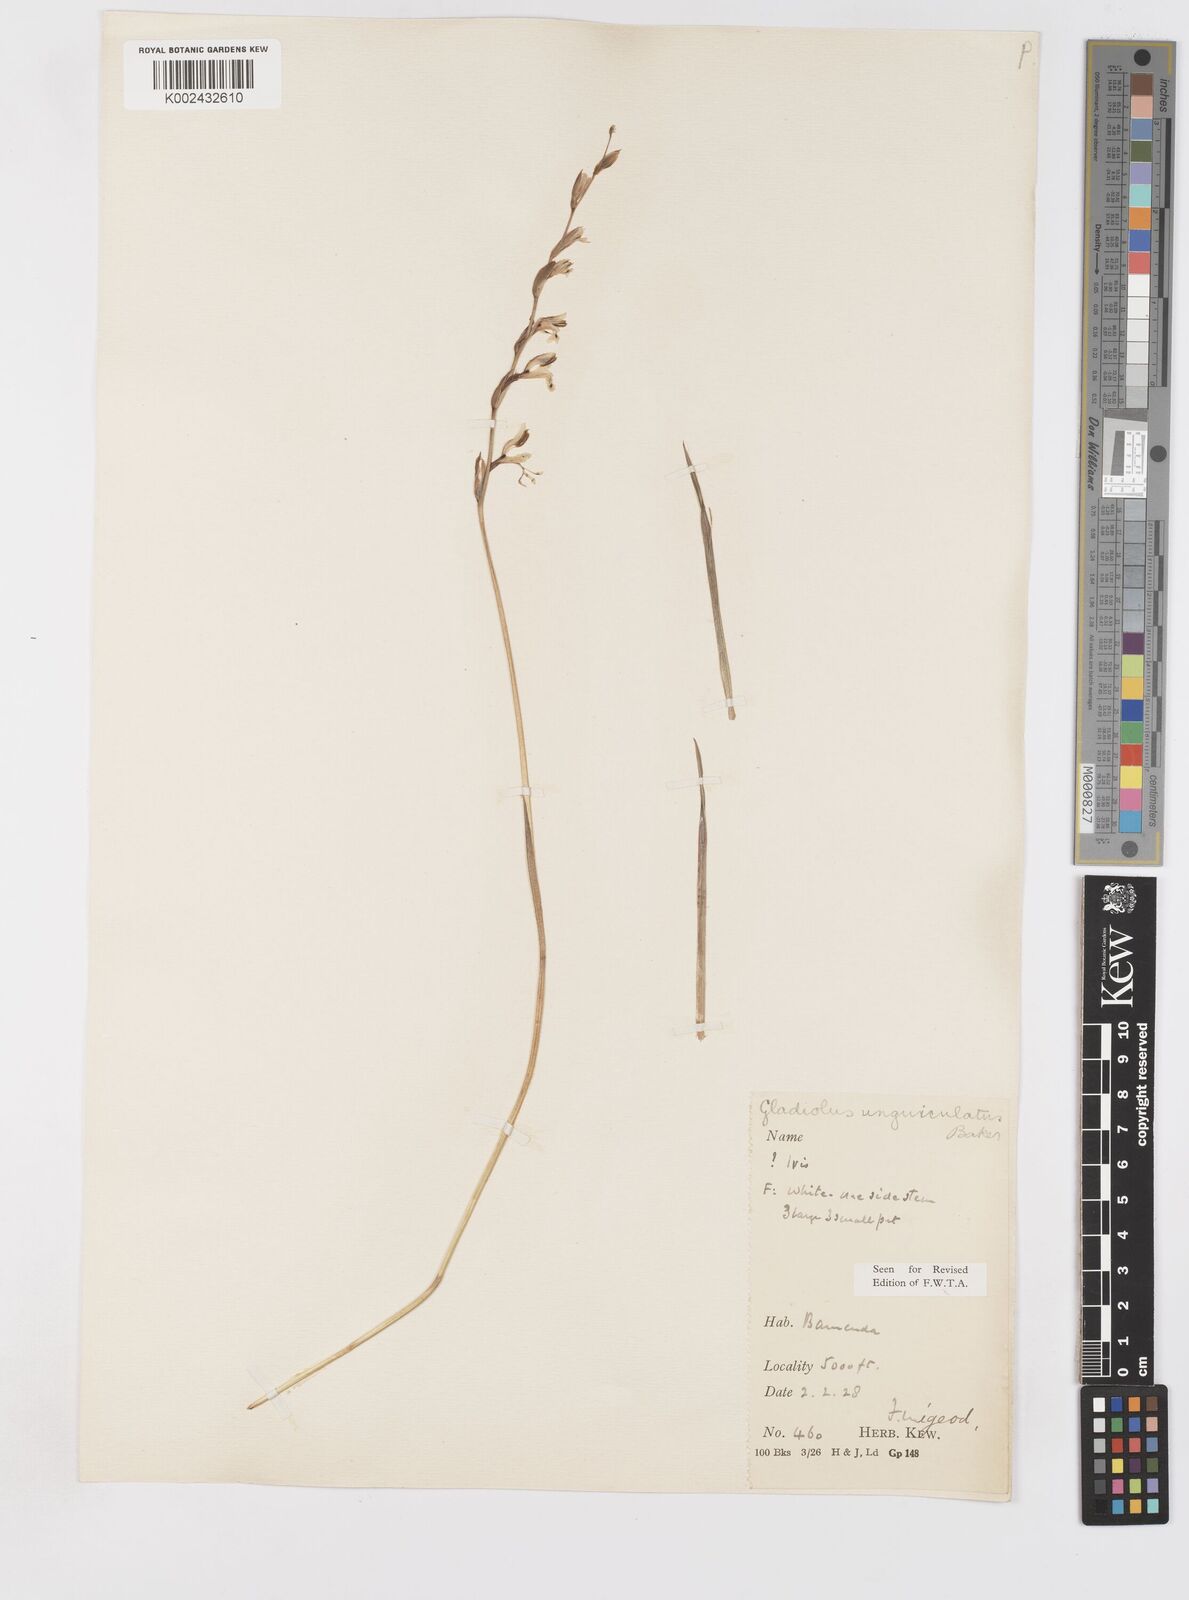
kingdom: Plantae
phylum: Tracheophyta
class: Liliopsida
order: Asparagales
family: Iridaceae
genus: Gladiolus
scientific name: Gladiolus unguiculatus
